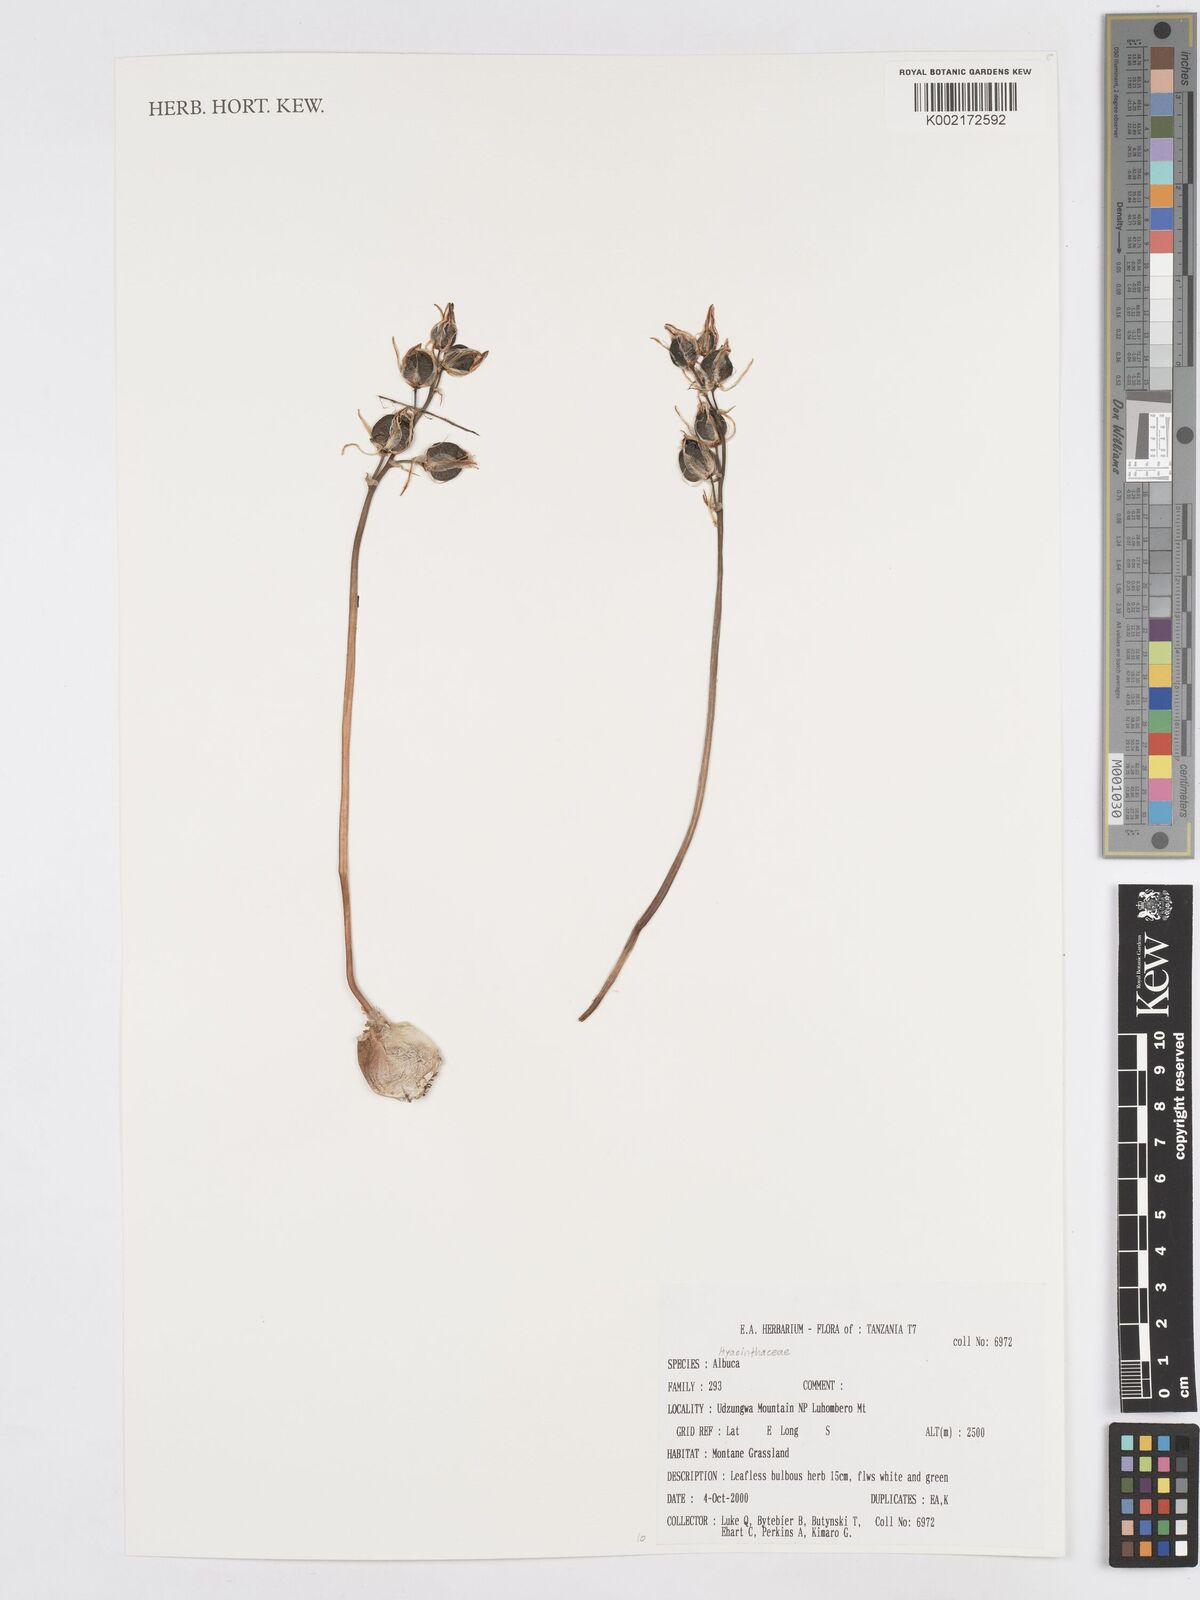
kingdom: Plantae
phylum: Tracheophyta
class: Liliopsida
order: Asparagales
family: Asparagaceae
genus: Albuca
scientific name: Albuca
